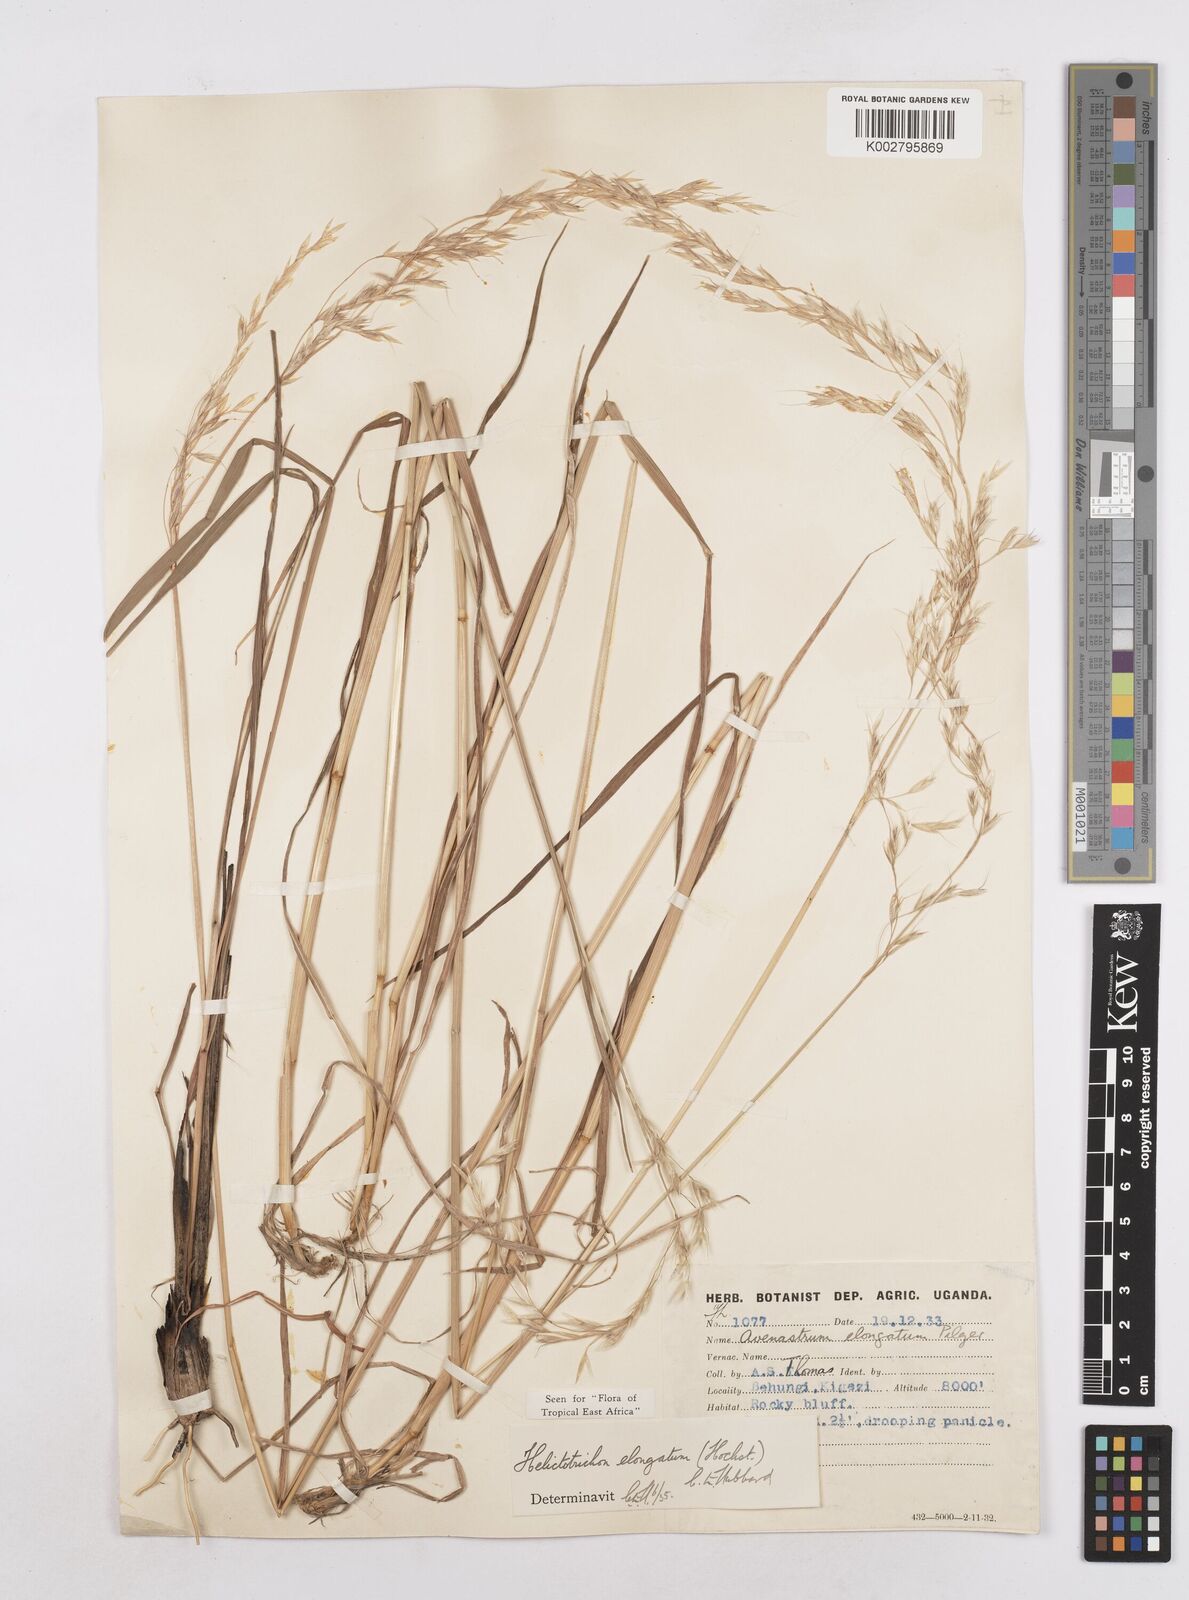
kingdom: Plantae
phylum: Tracheophyta
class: Liliopsida
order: Poales
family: Poaceae
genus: Trisetopsis
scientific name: Trisetopsis elongata
